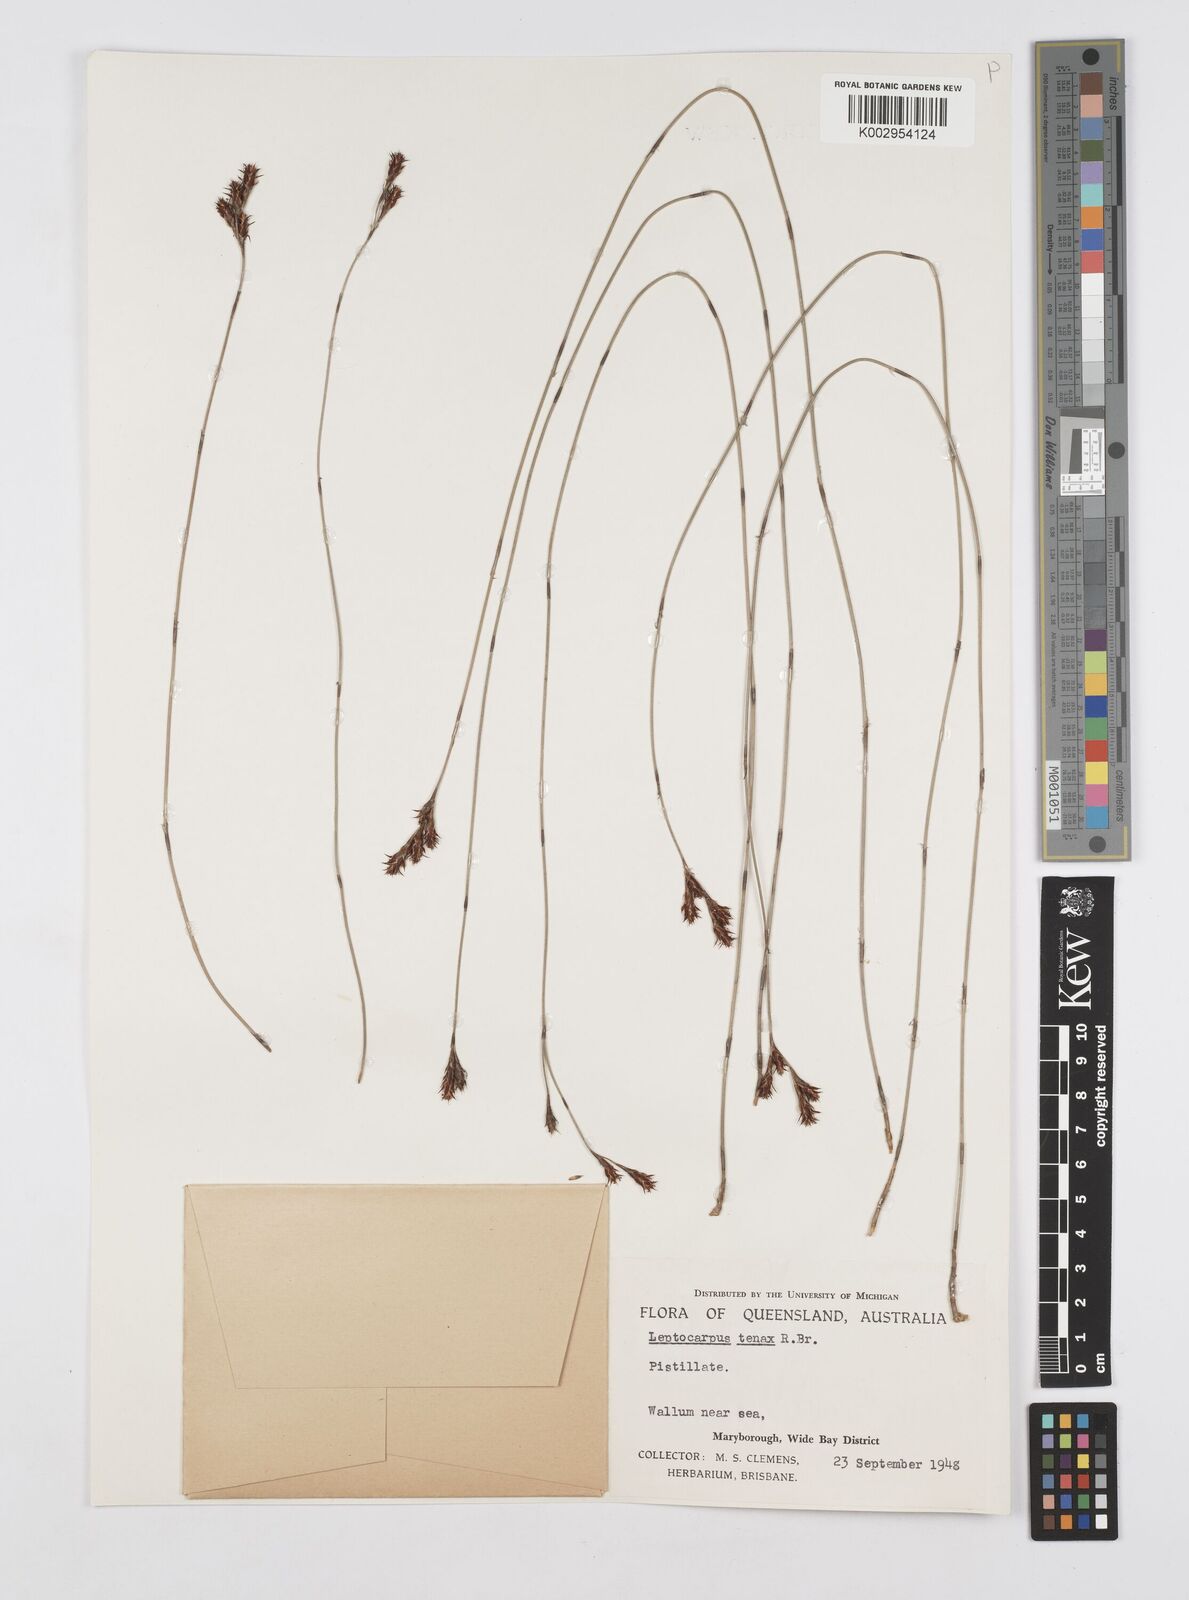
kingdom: Plantae
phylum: Tracheophyta
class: Liliopsida
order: Poales
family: Restionaceae
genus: Leptocarpus
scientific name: Leptocarpus tenax
